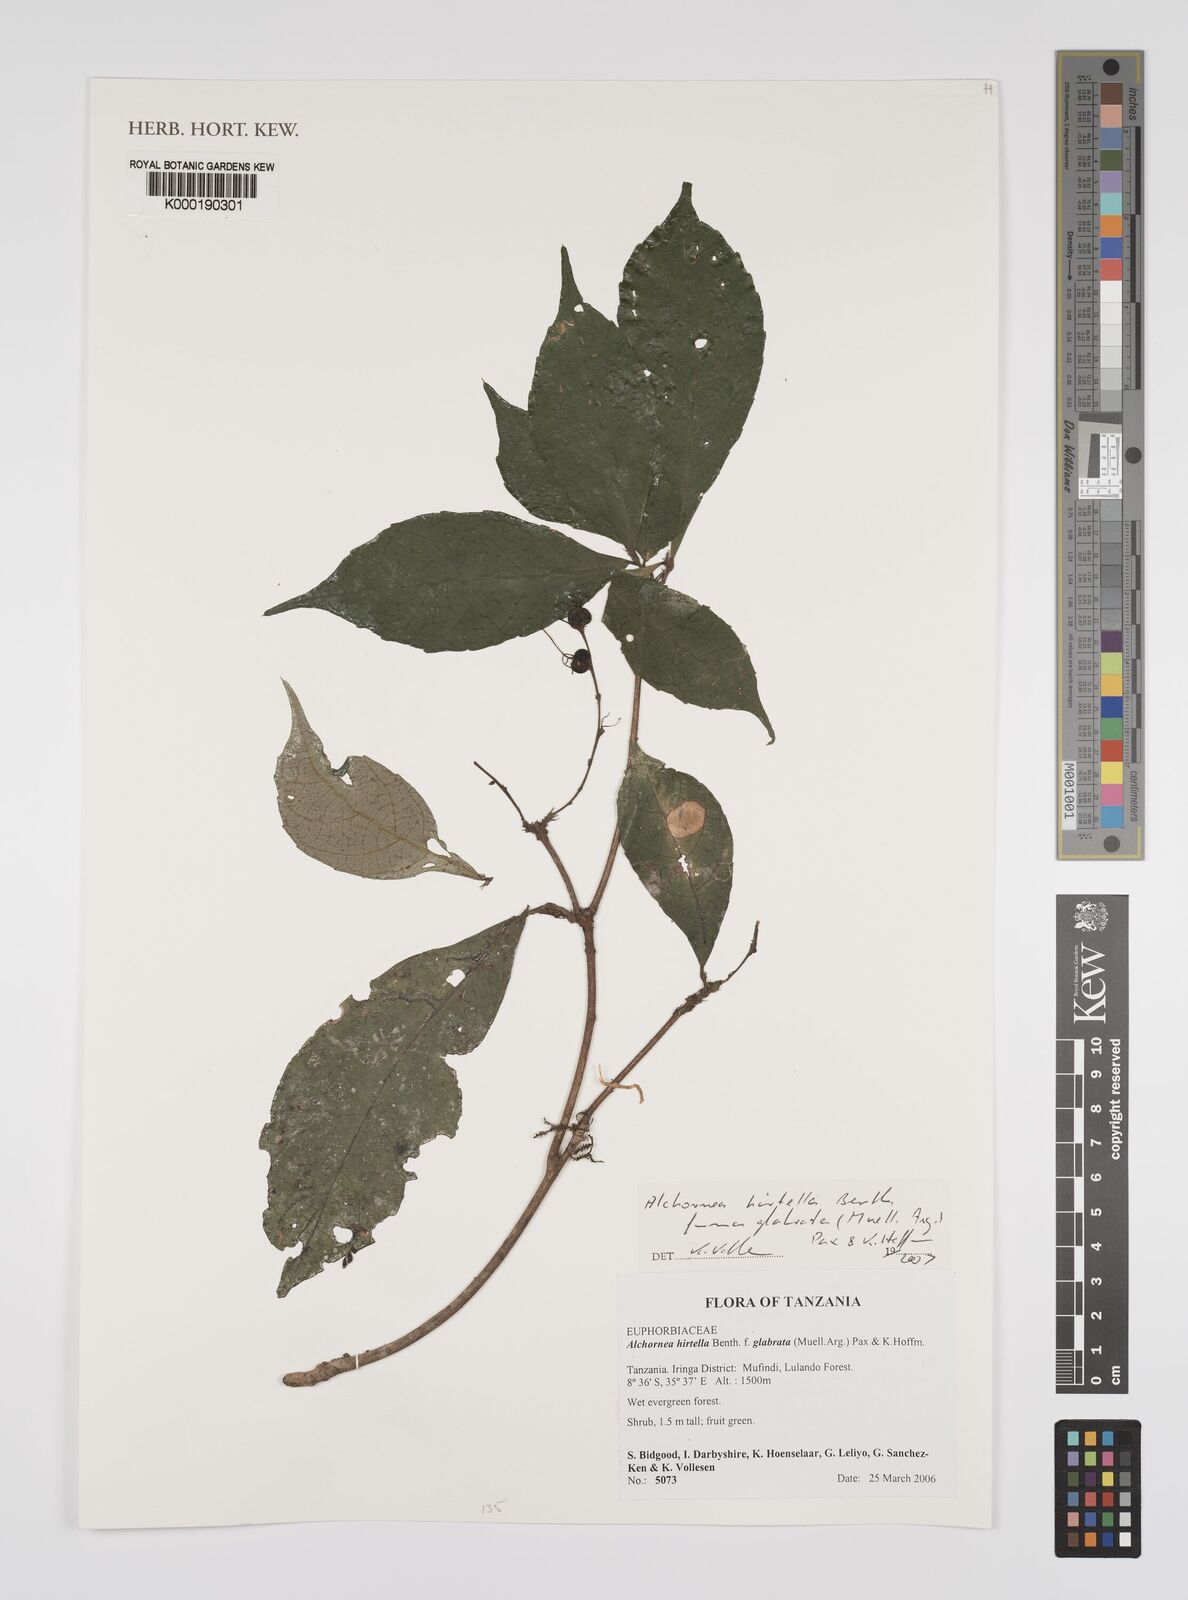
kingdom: Plantae
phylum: Tracheophyta
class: Magnoliopsida
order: Malpighiales
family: Euphorbiaceae
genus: Alchornea
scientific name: Alchornea hirtella
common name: Forest bead-string
